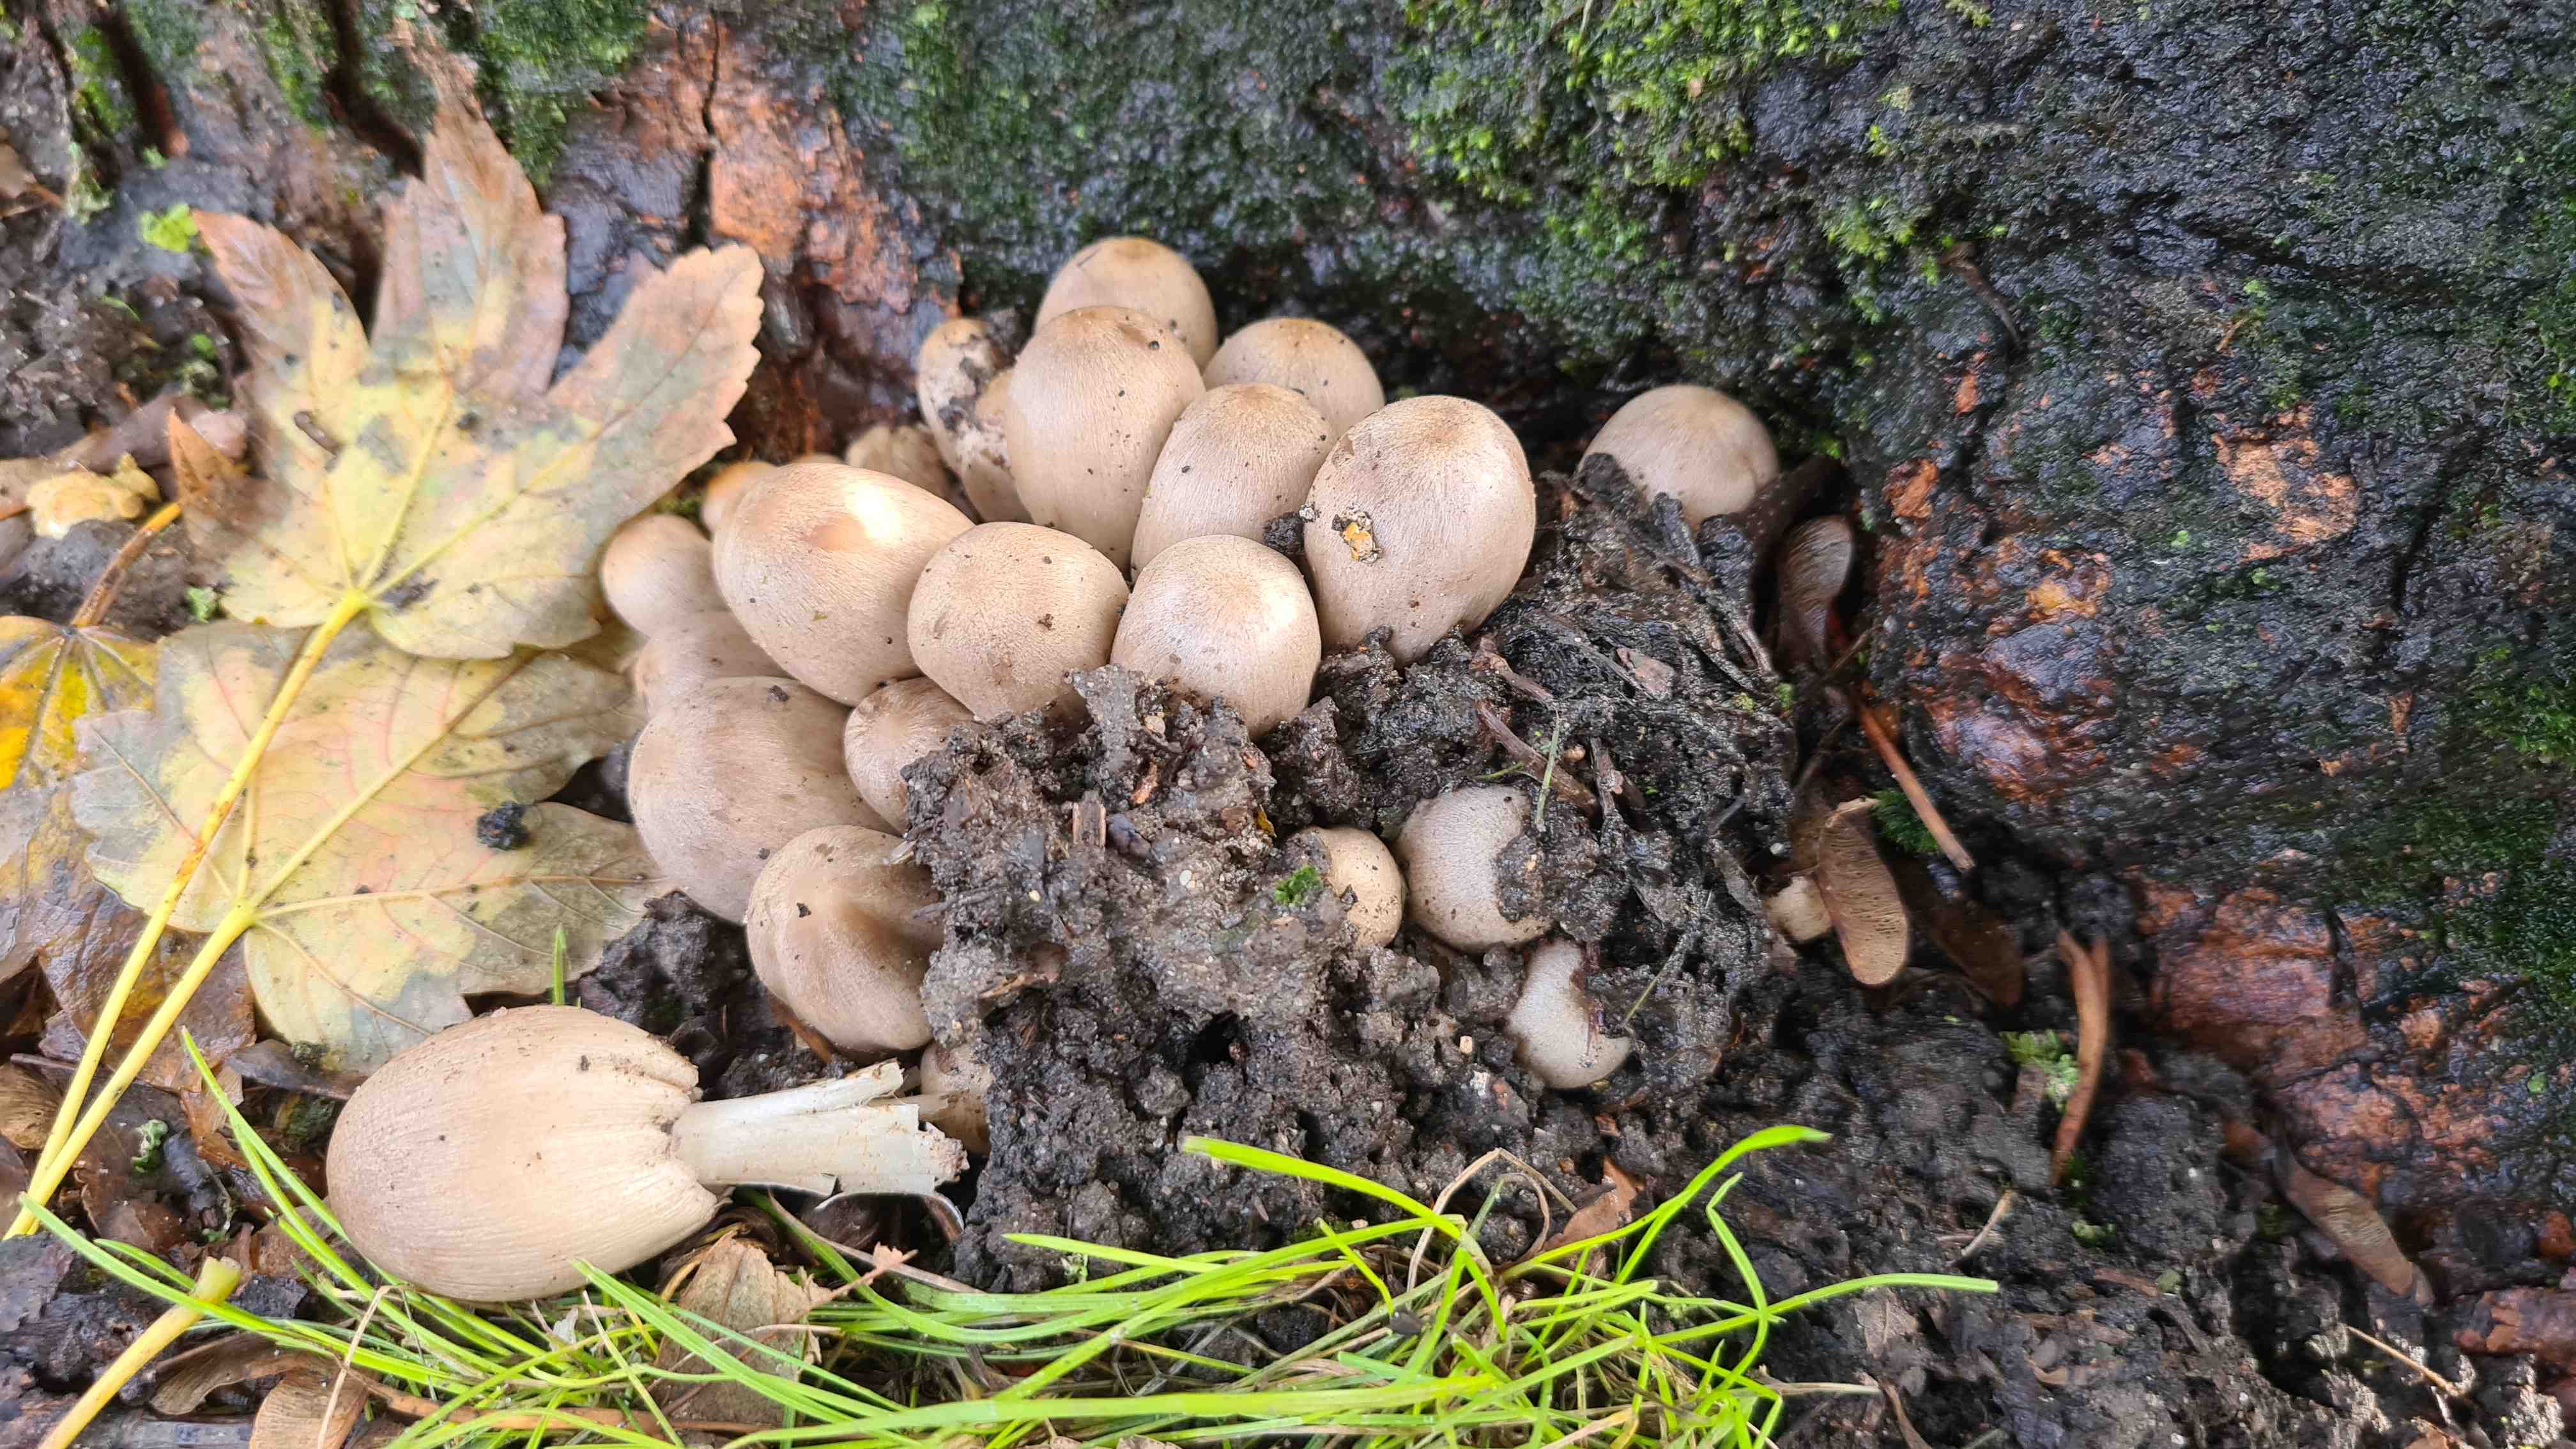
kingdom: Fungi
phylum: Basidiomycota
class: Agaricomycetes
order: Agaricales
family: Psathyrellaceae
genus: Coprinopsis
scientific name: Coprinopsis romagnesiana
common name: brunskællet blækhat
